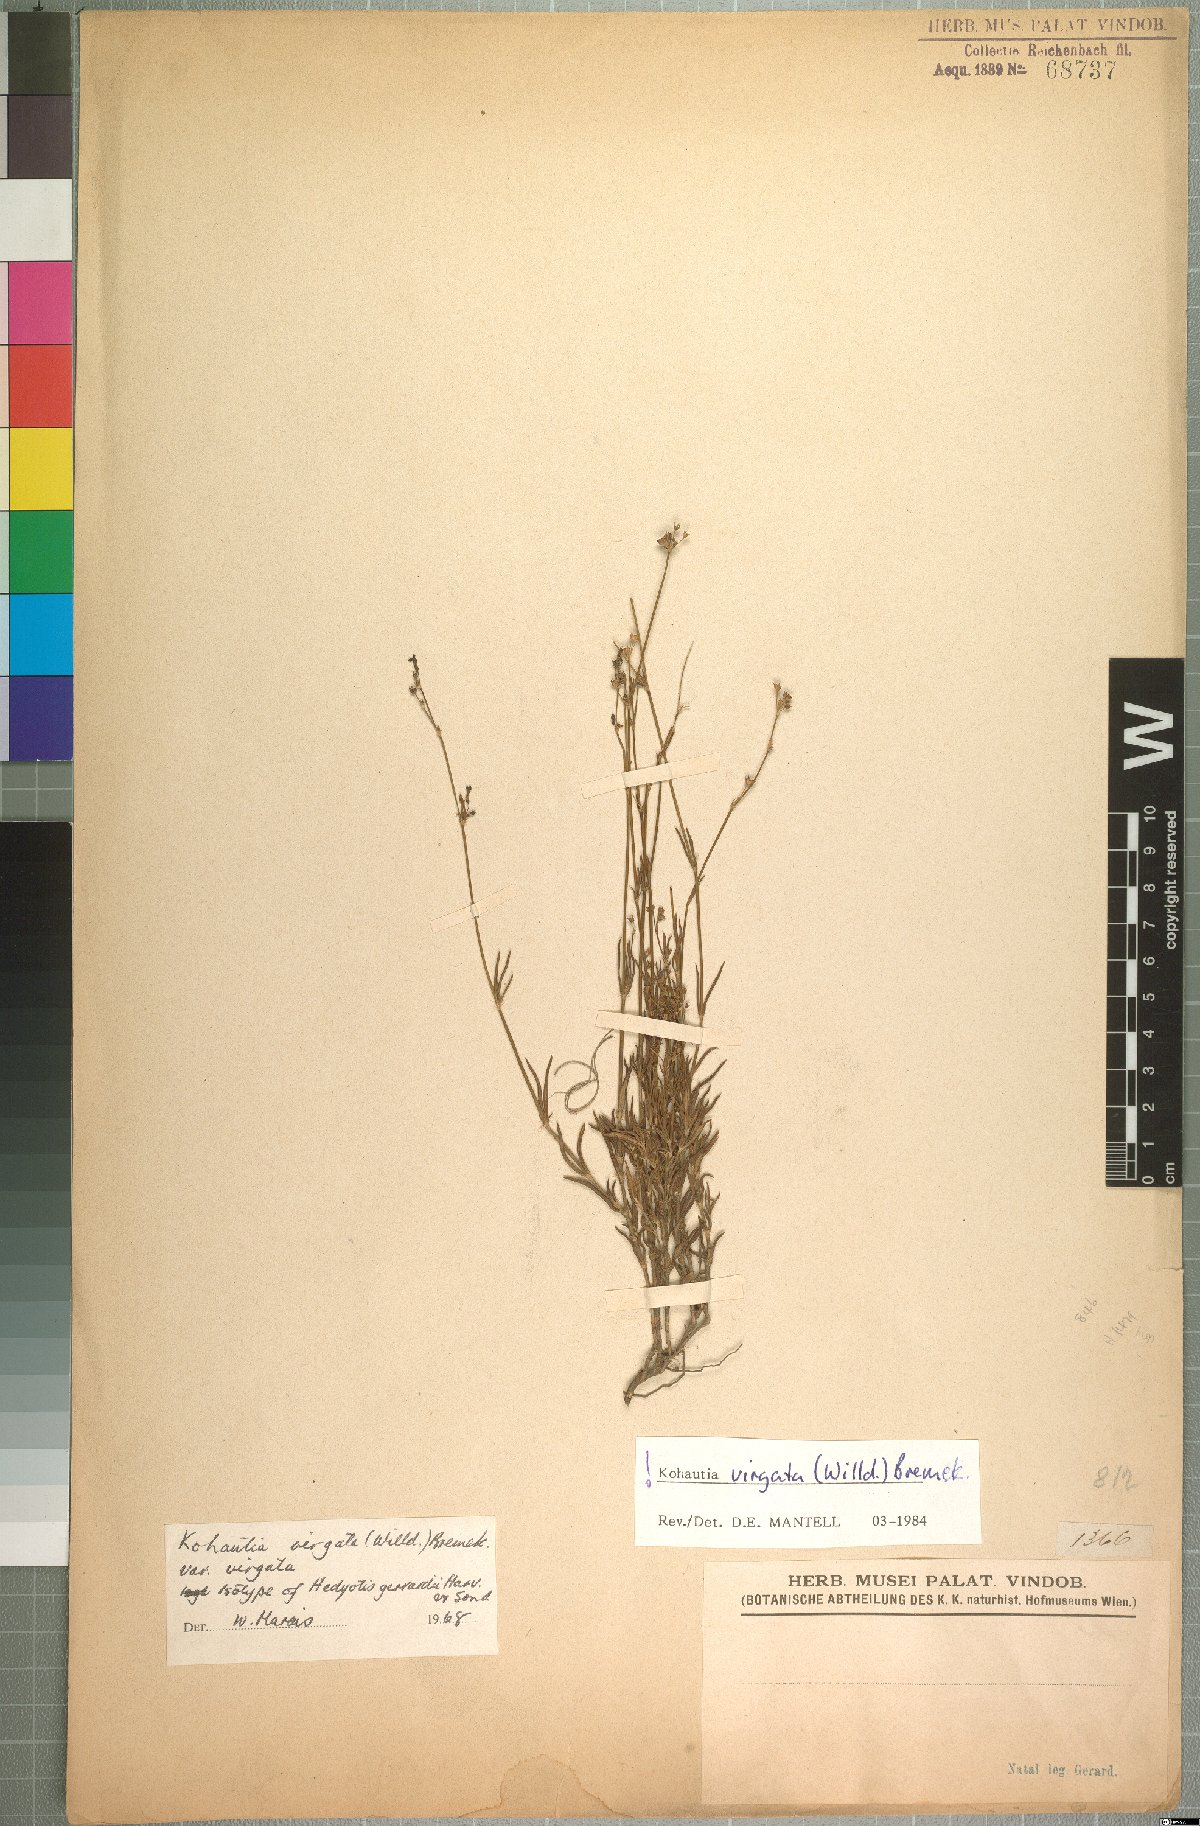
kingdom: Plantae
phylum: Tracheophyta
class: Magnoliopsida
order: Gentianales
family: Rubiaceae
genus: Cordylostigma
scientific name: Cordylostigma virgatum
